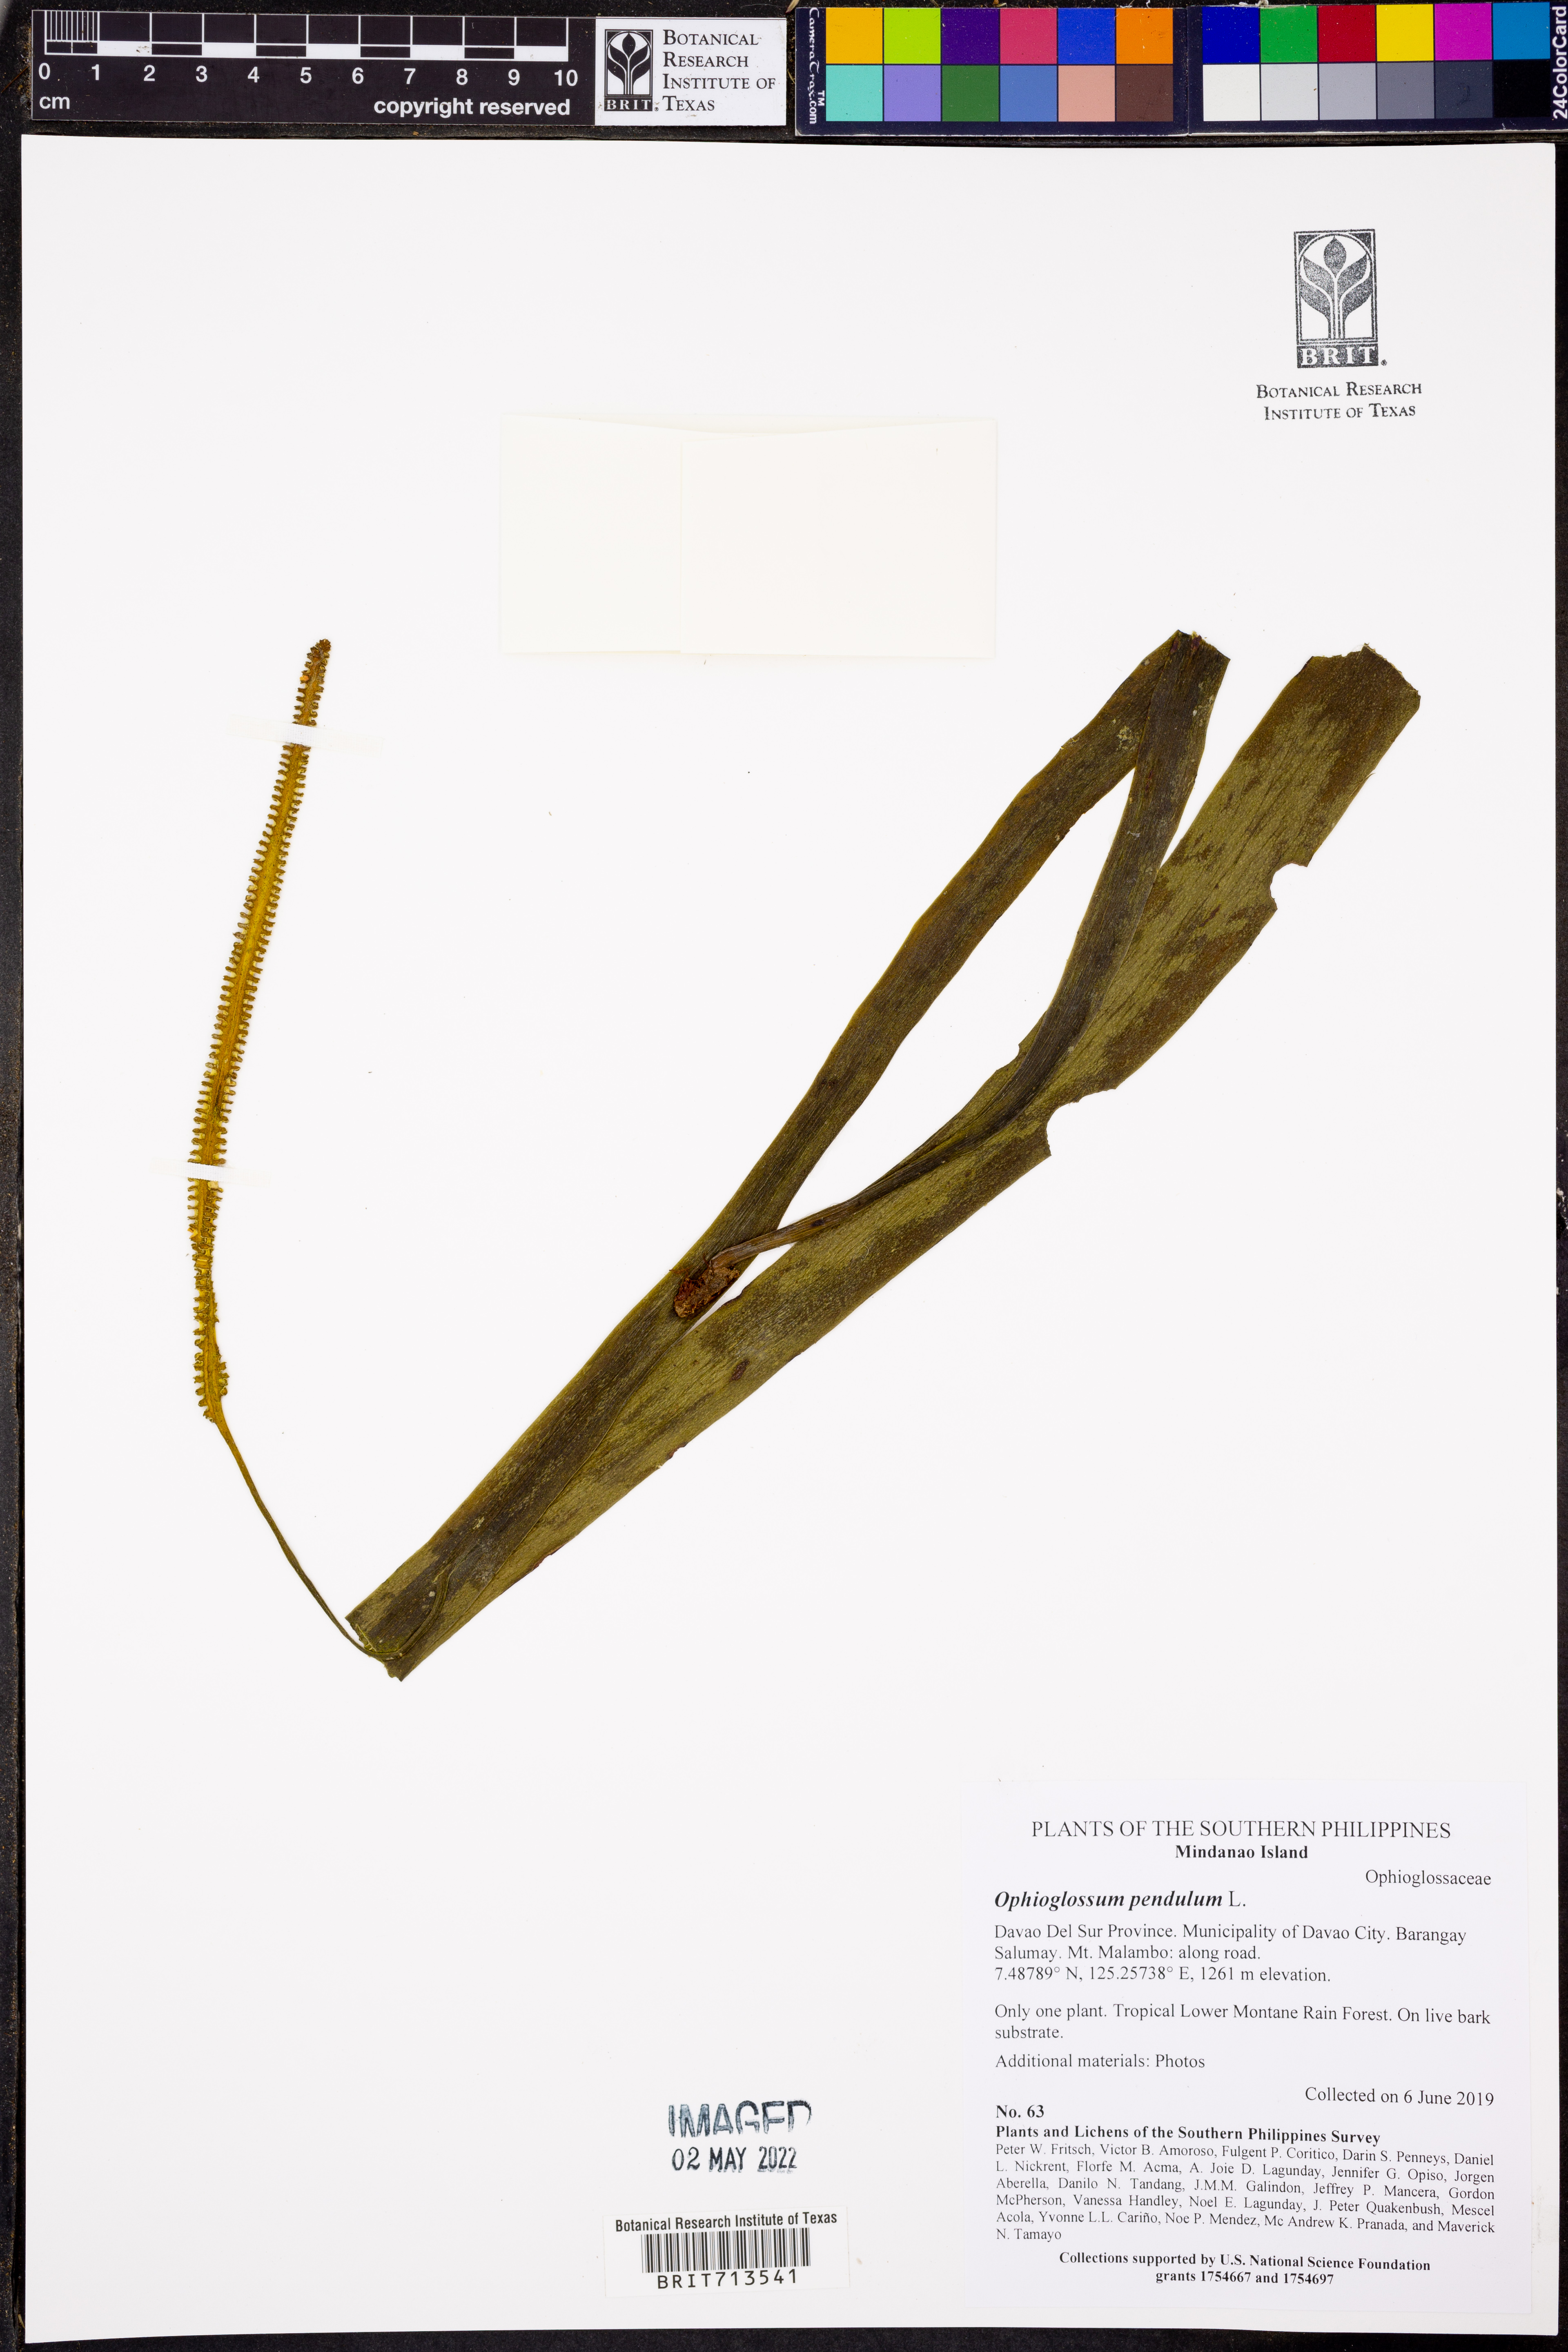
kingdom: Plantae
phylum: Tracheophyta
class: Polypodiopsida
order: Ophioglossales
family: Ophioglossaceae
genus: Ophioderma
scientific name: Ophioderma pendulum
